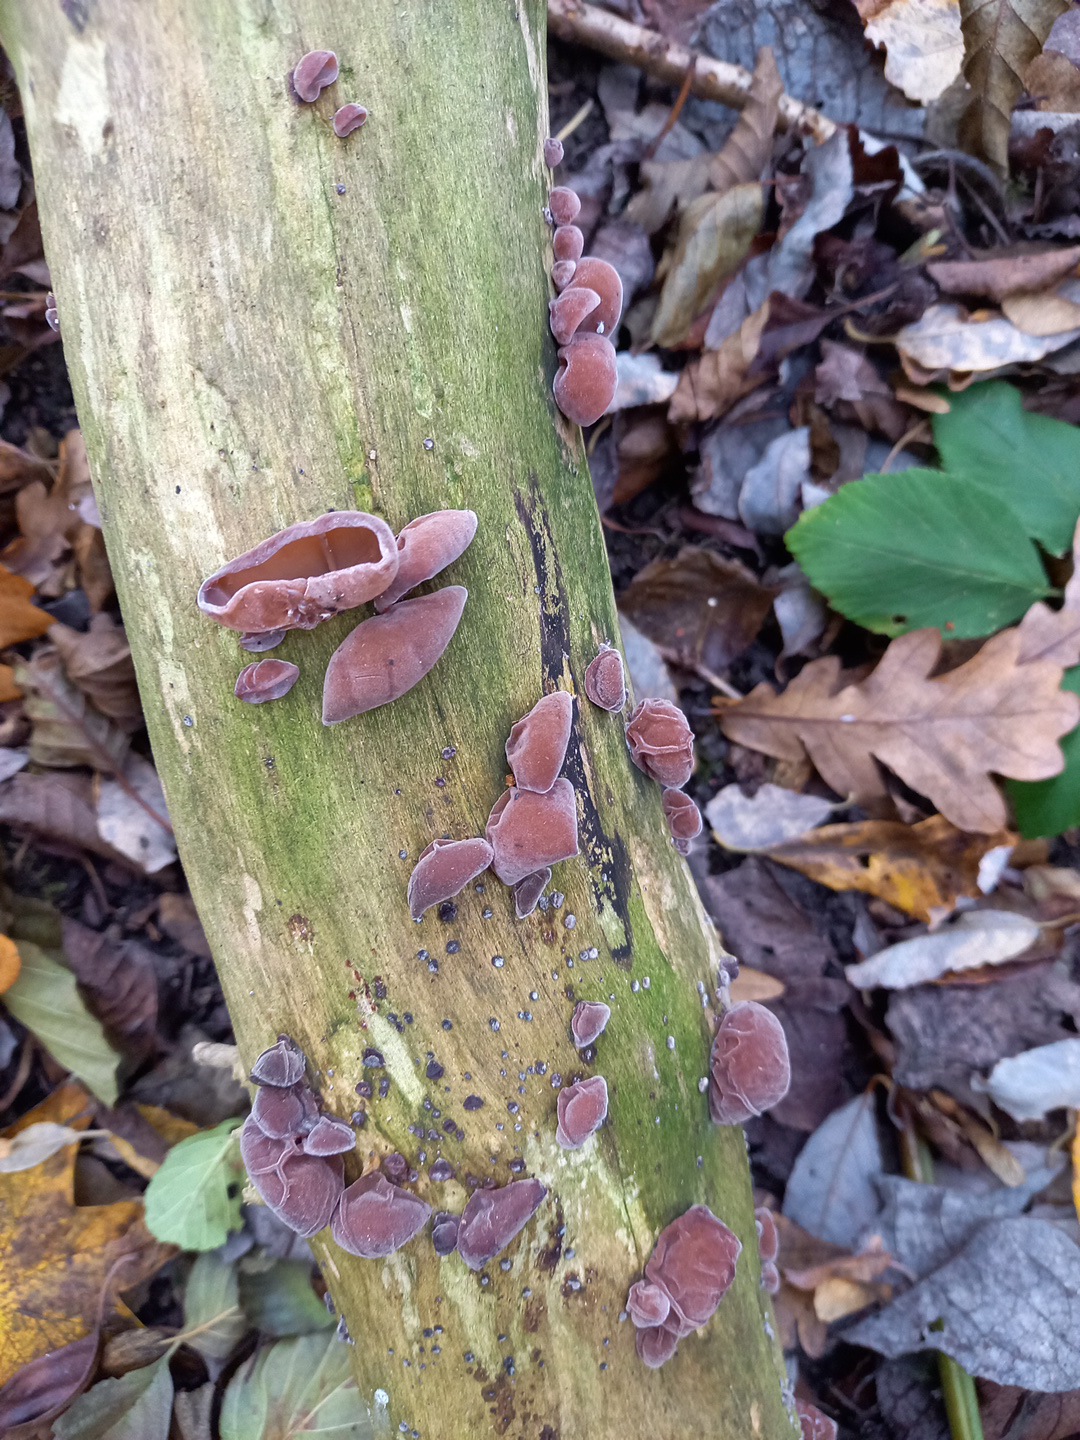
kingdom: Fungi
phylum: Basidiomycota
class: Agaricomycetes
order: Auriculariales
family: Auriculariaceae
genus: Auricularia
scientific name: Auricularia auricula-judae
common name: almindelig judasøre
